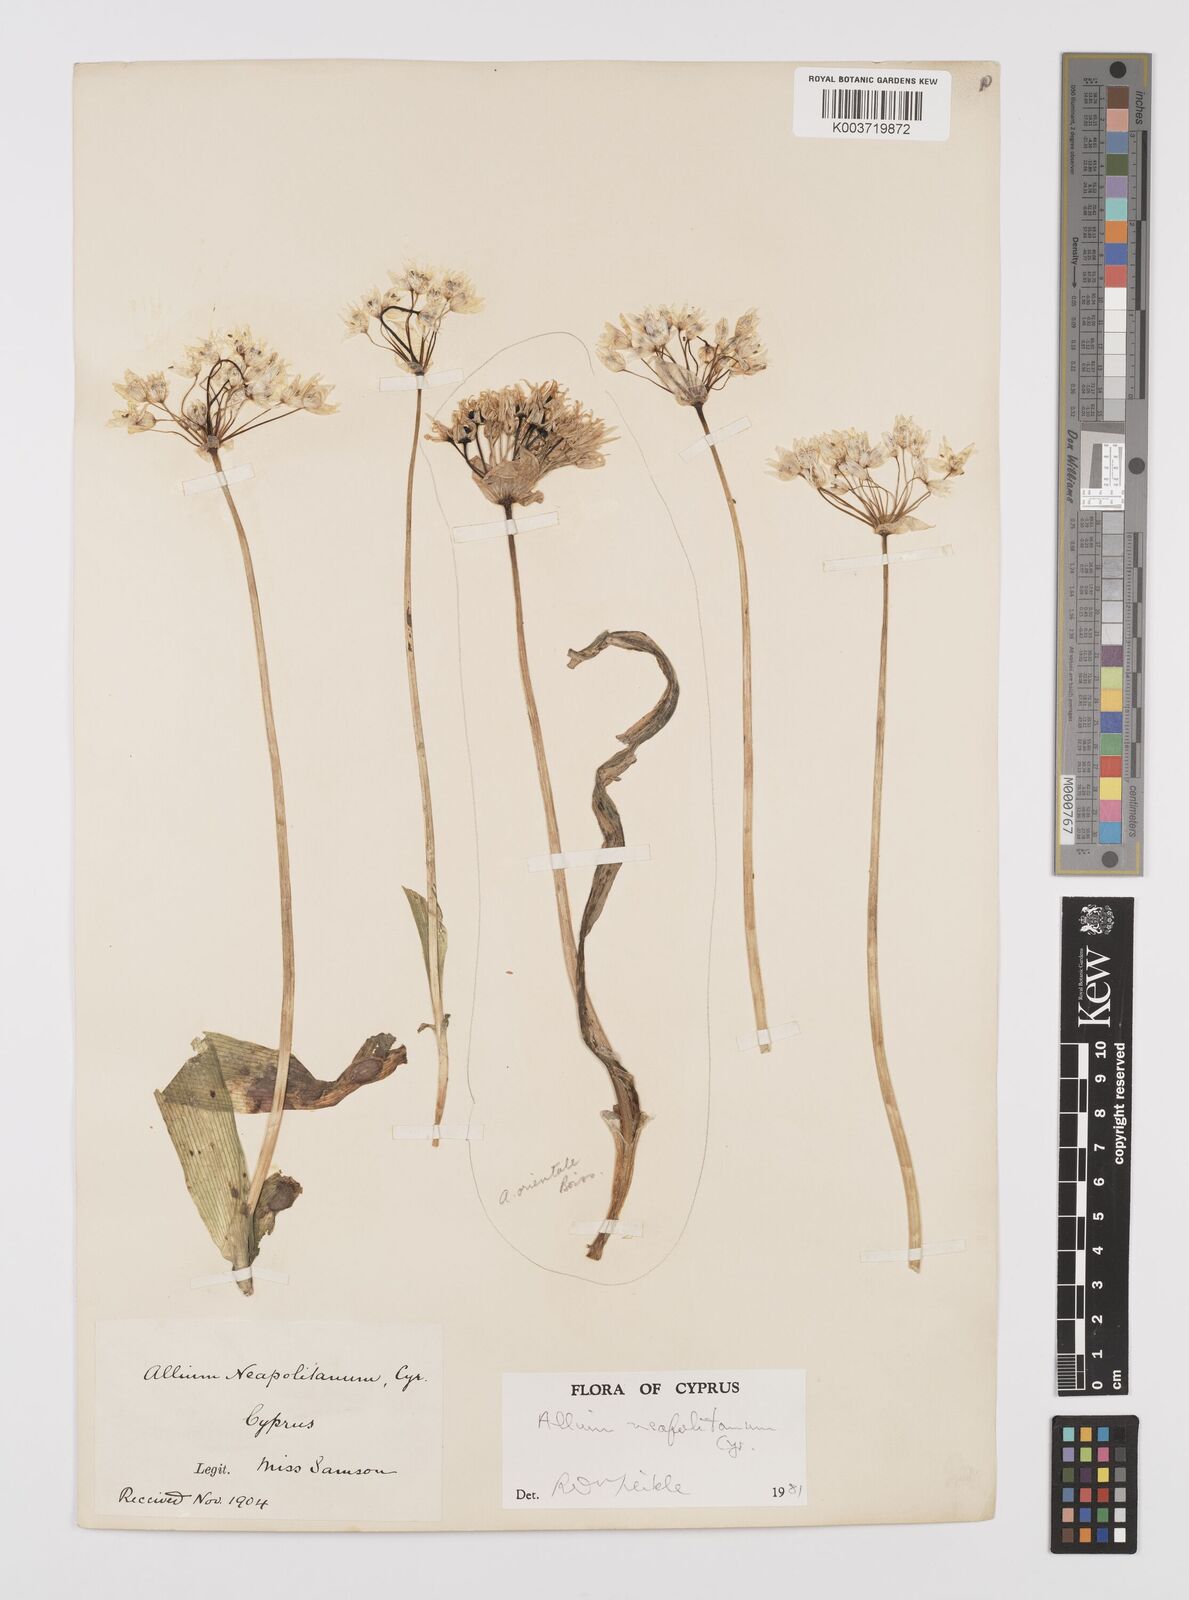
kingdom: Plantae
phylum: Tracheophyta
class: Liliopsida
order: Asparagales
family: Amaryllidaceae
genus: Allium
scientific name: Allium orientale
